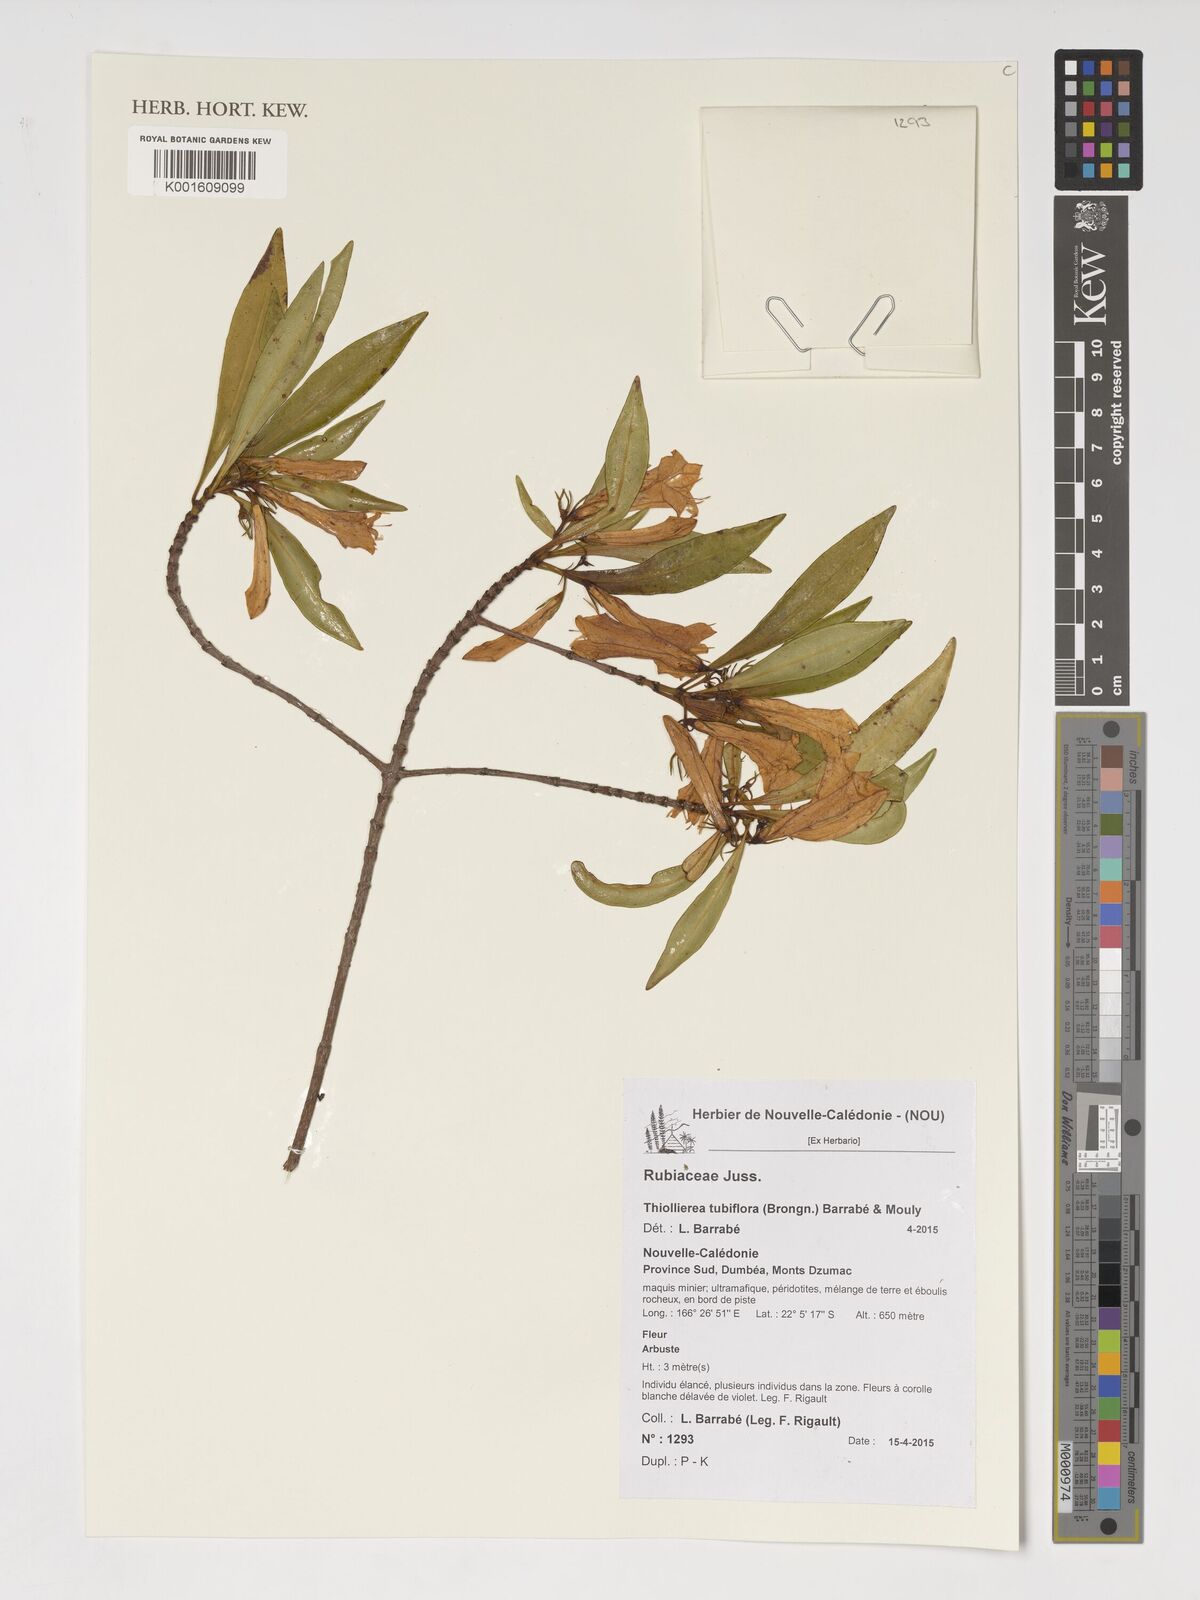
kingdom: Plantae
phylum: Tracheophyta
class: Magnoliopsida
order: Gentianales
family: Rubiaceae
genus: Thiollierea
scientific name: Thiollierea tubiflora
